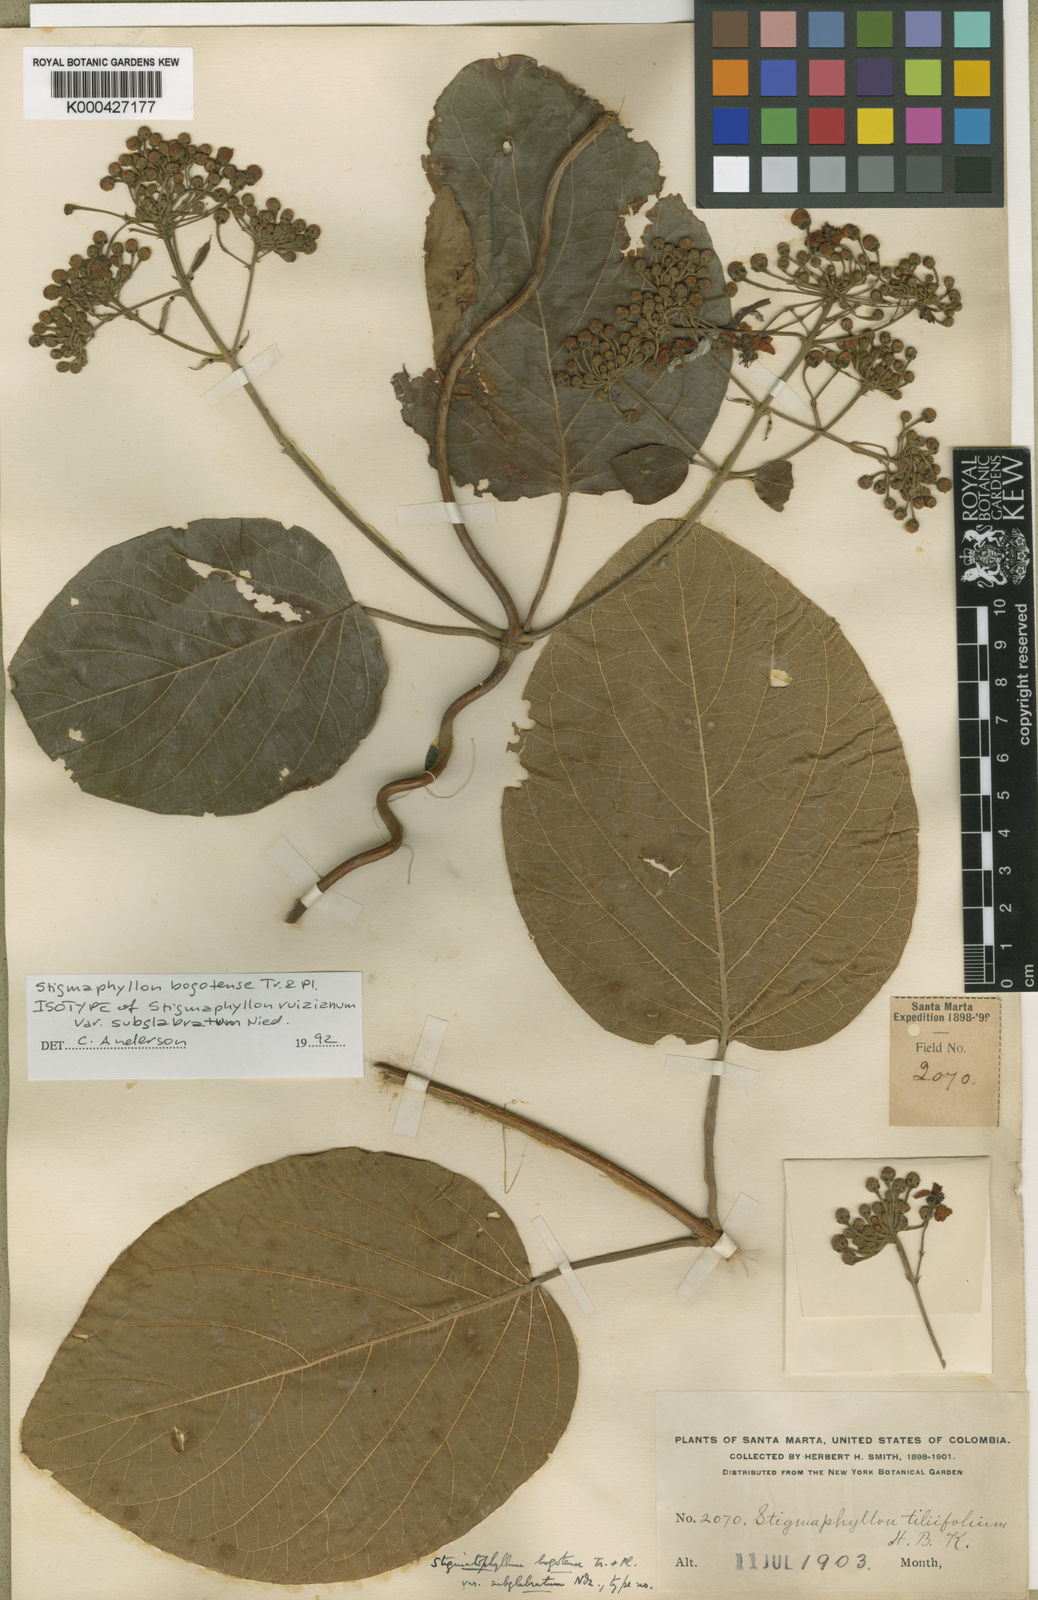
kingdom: Plantae
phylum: Tracheophyta
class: Magnoliopsida
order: Malpighiales
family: Malpighiaceae
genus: Stigmaphyllon
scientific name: Stigmaphyllon bogotense
